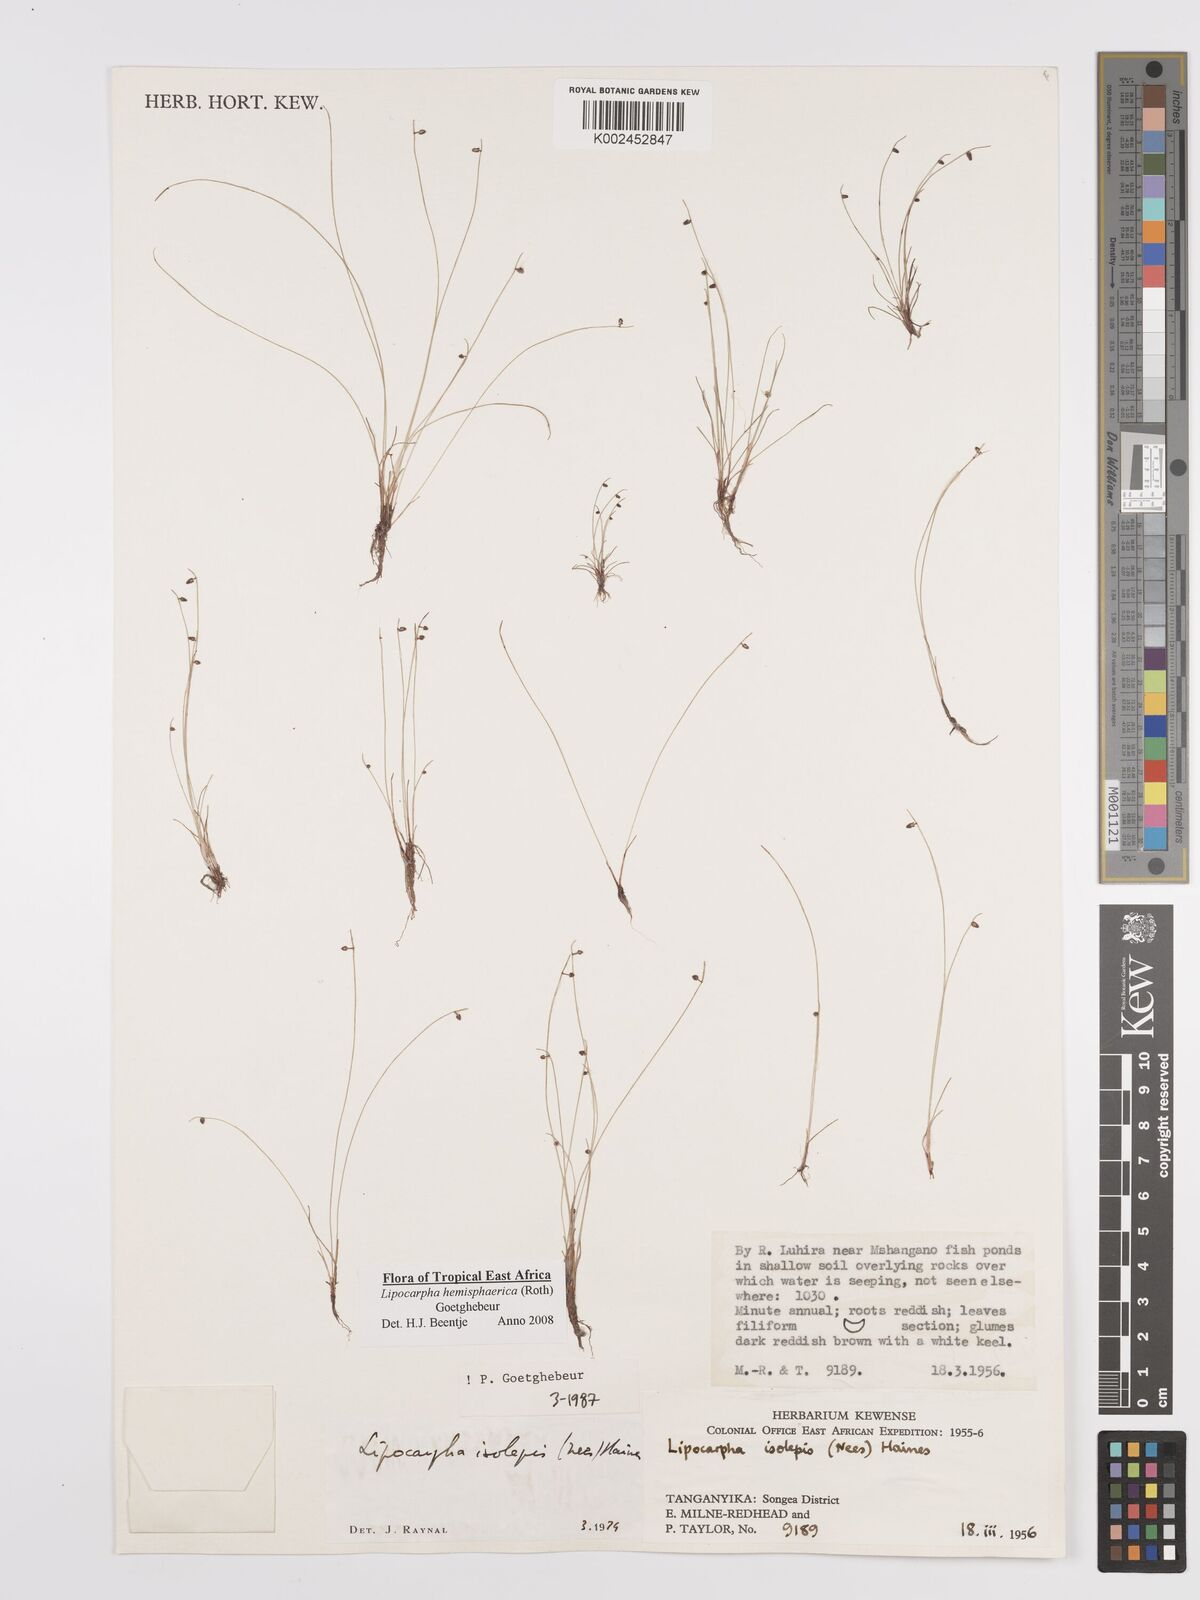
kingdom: Plantae
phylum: Tracheophyta
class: Liliopsida
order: Poales
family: Cyperaceae
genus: Cyperus
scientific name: Cyperus hemisphaericus
